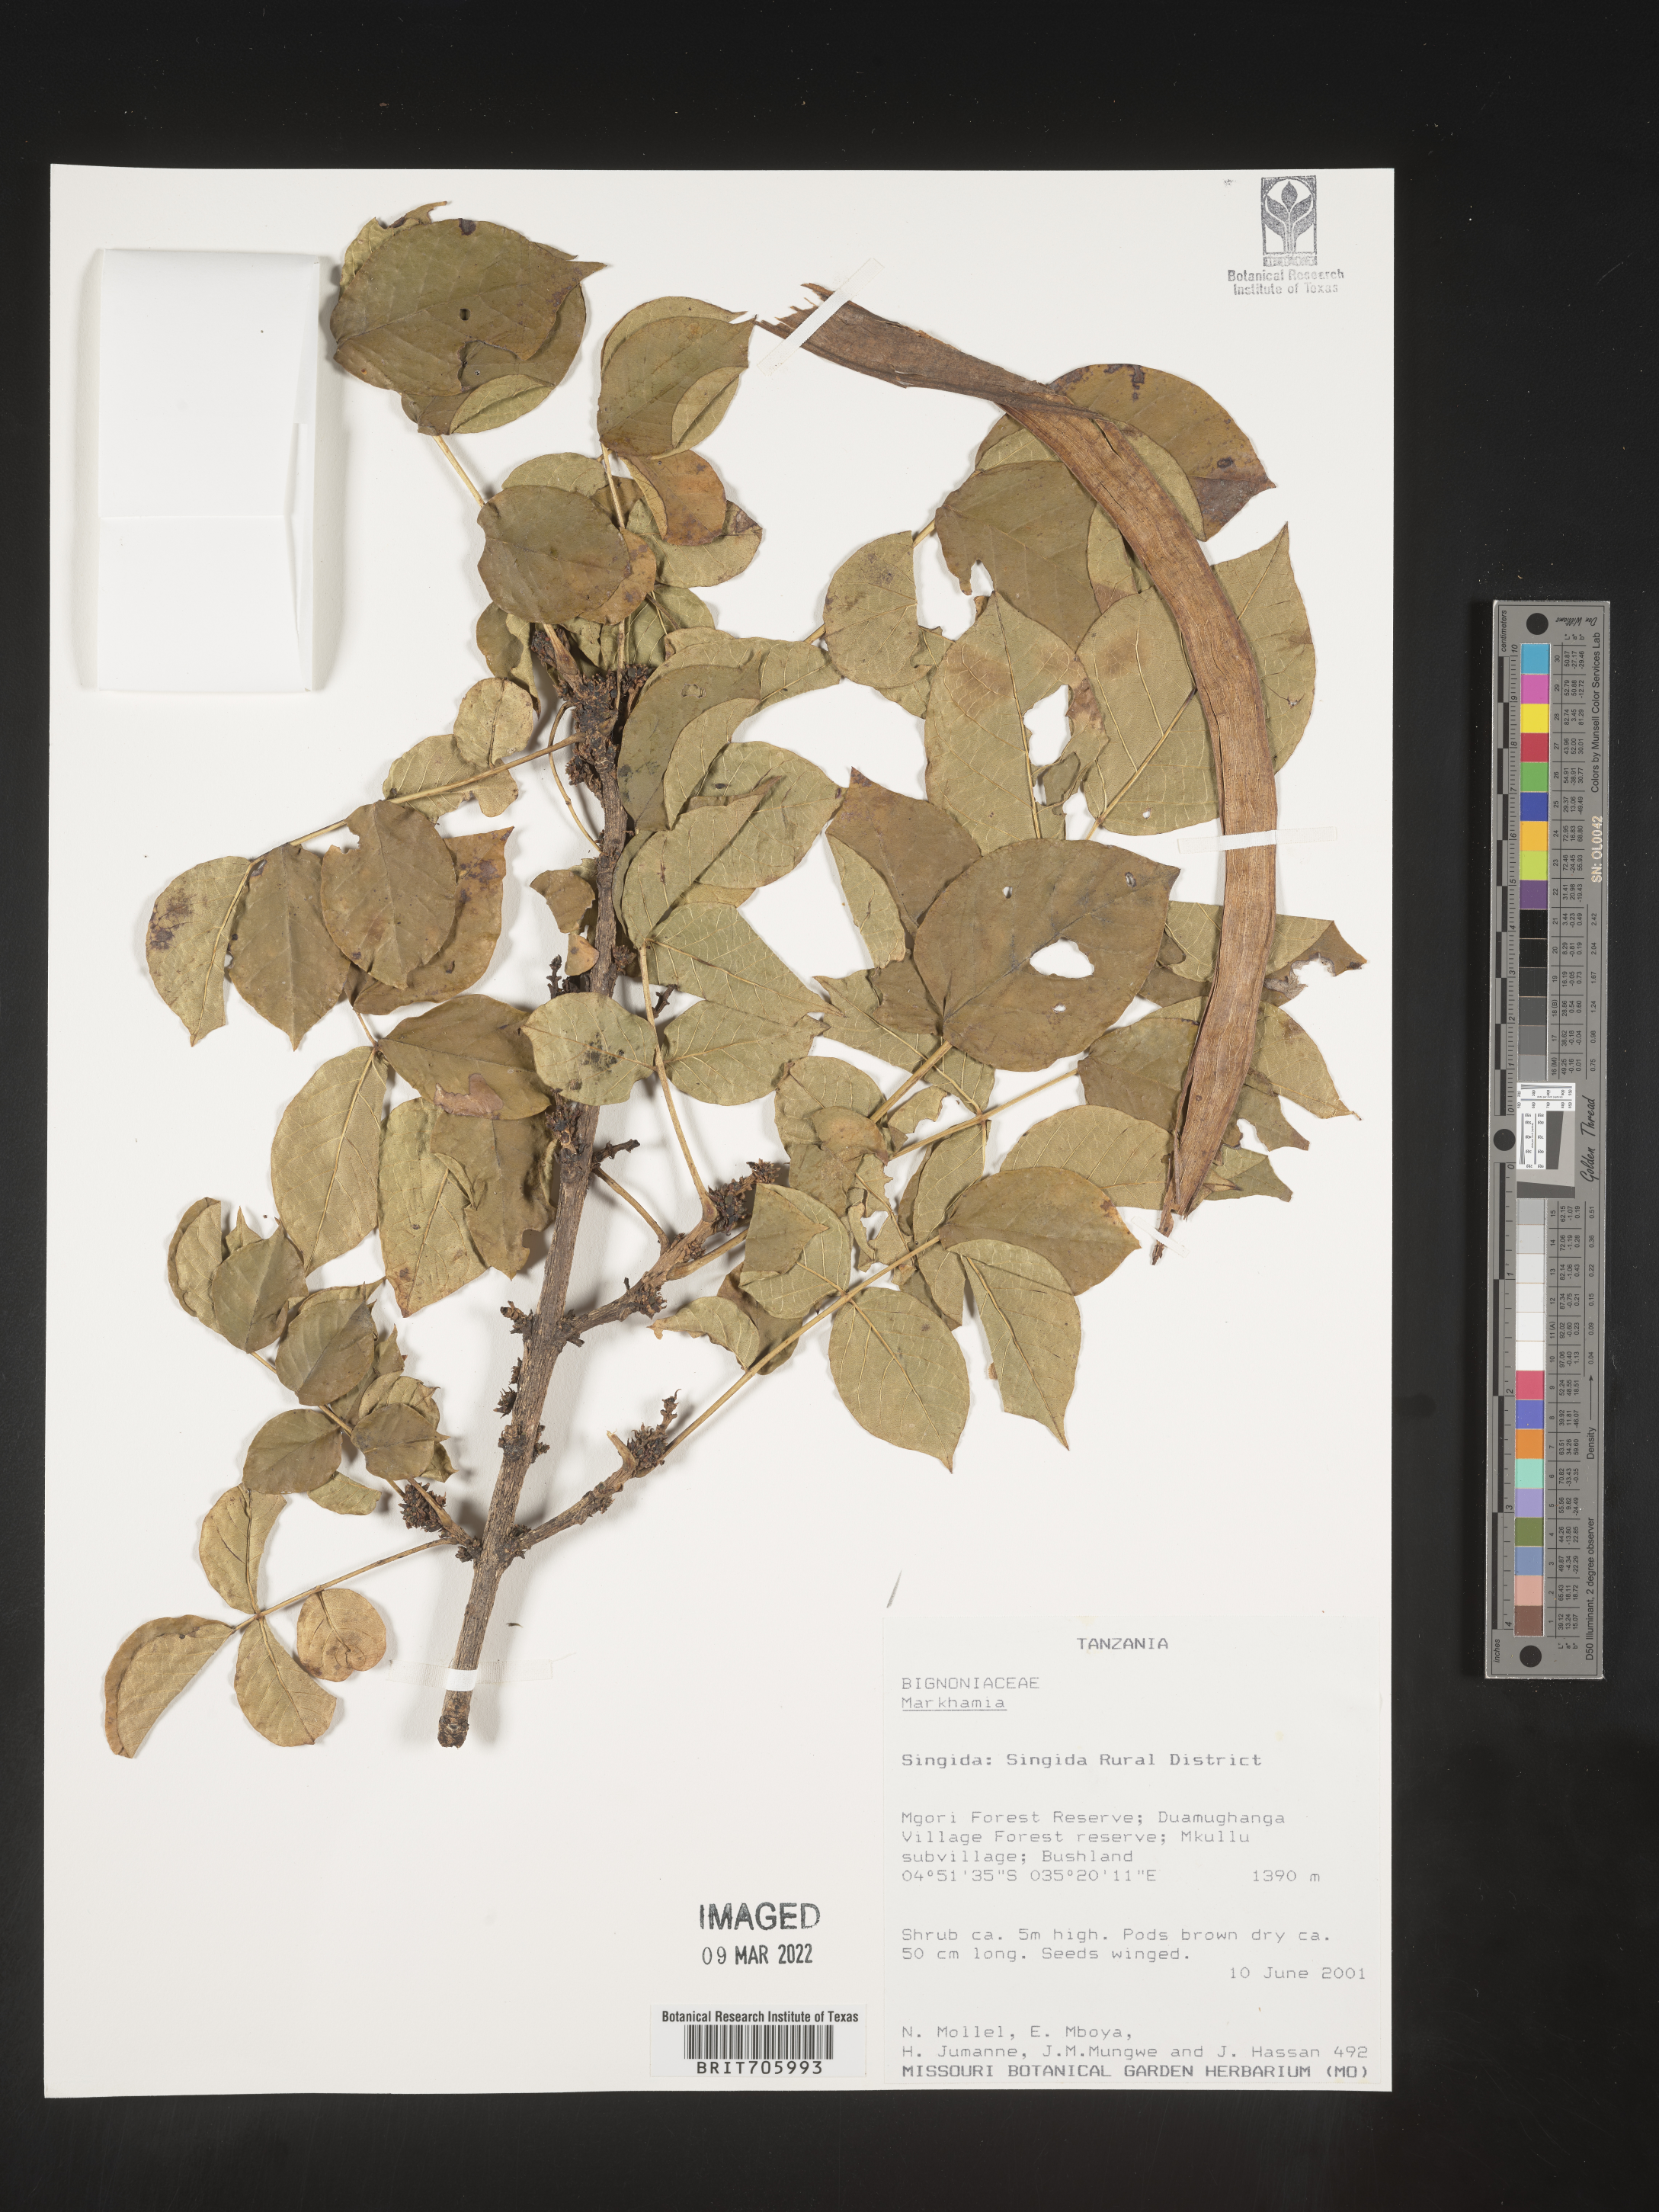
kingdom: Plantae
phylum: Tracheophyta
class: Magnoliopsida
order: Lamiales
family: Bignoniaceae
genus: Markhamia
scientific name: Markhamia
